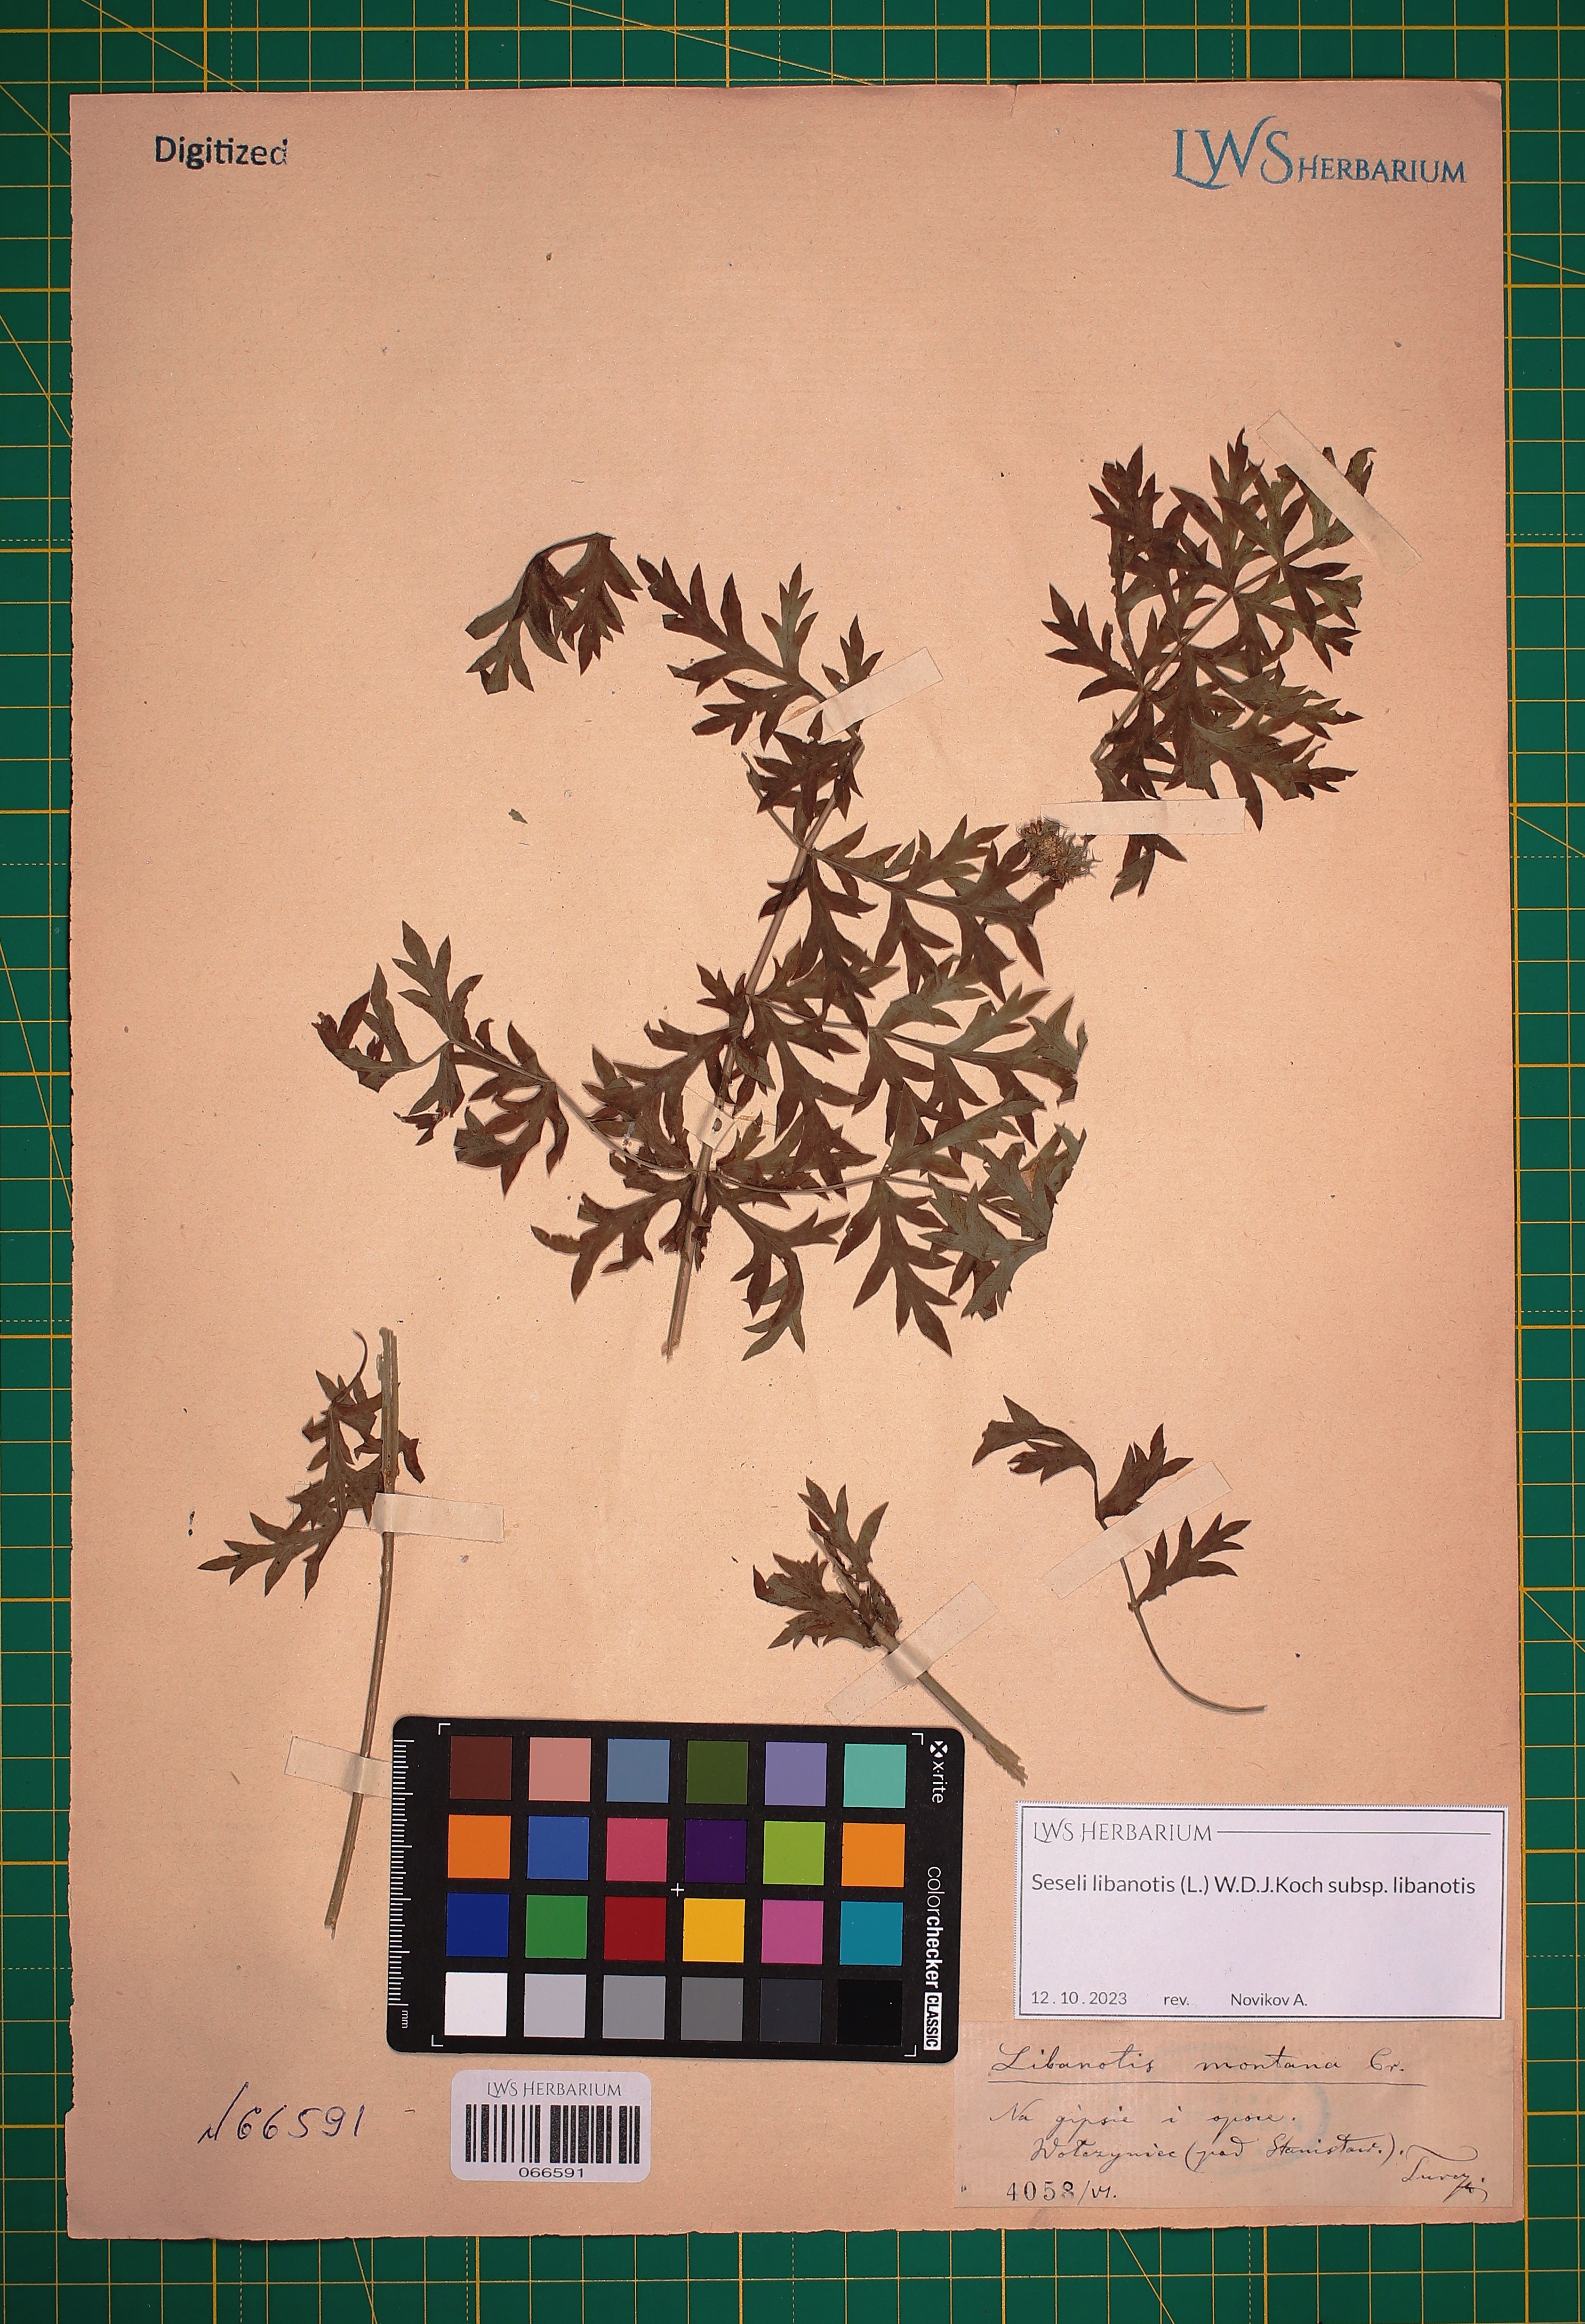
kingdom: Plantae
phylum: Tracheophyta
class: Magnoliopsida
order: Apiales
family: Apiaceae
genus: Seseli
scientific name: Seseli libanotis
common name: Mooncarrot
